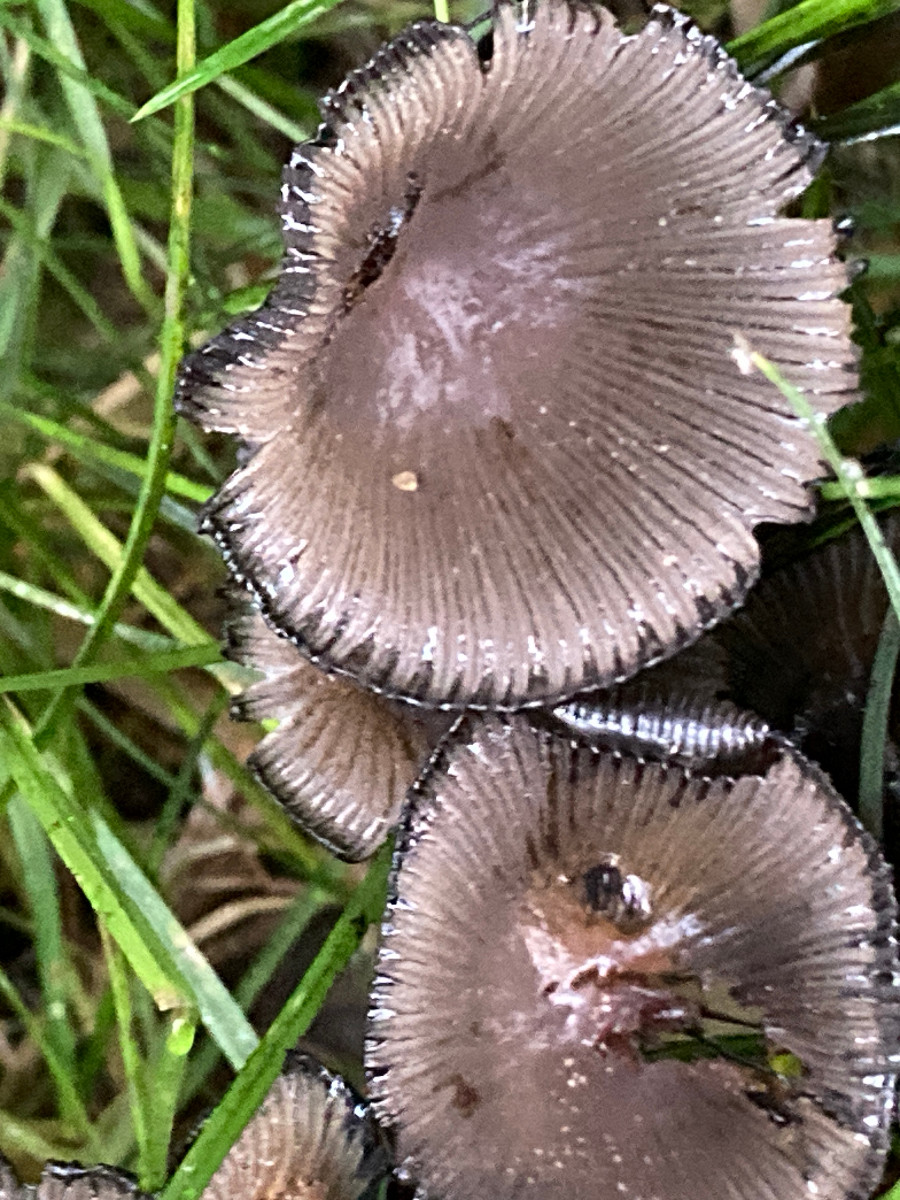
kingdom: Fungi
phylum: Basidiomycota
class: Agaricomycetes
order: Agaricales
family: Psathyrellaceae
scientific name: Psathyrellaceae
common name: mørkhatfamilien
